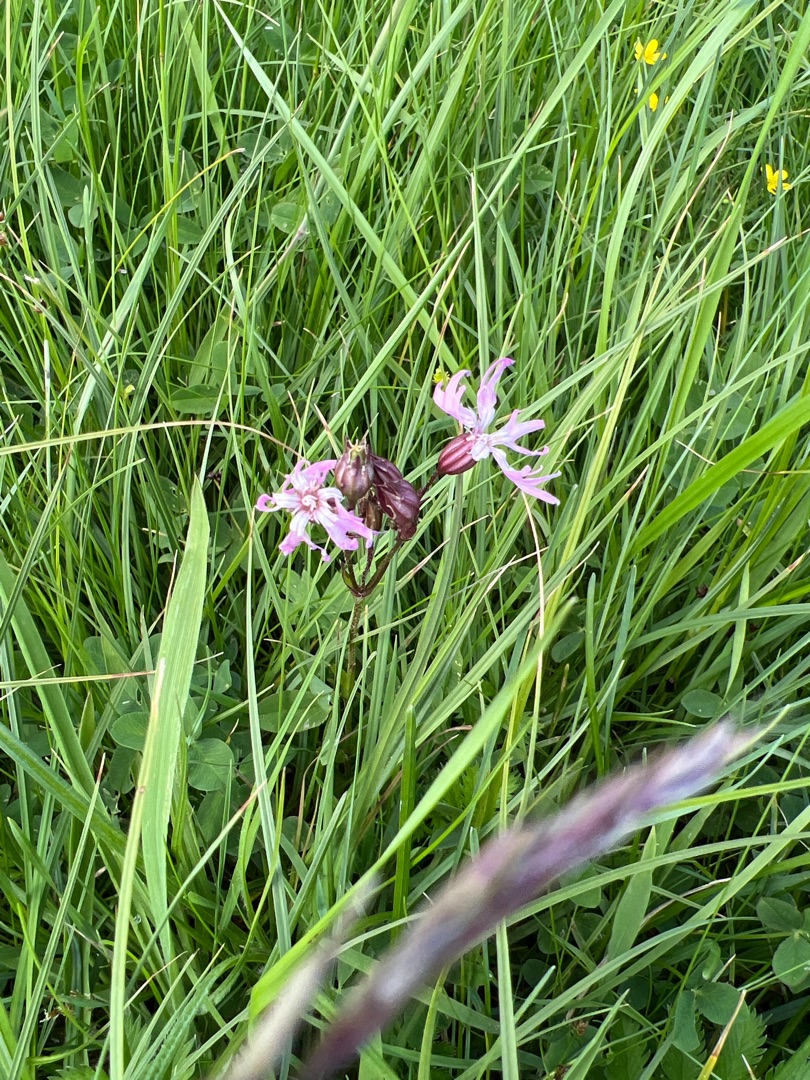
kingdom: Plantae
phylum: Tracheophyta
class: Magnoliopsida
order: Caryophyllales
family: Caryophyllaceae
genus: Silene
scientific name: Silene flos-cuculi
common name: Trævlekrone
